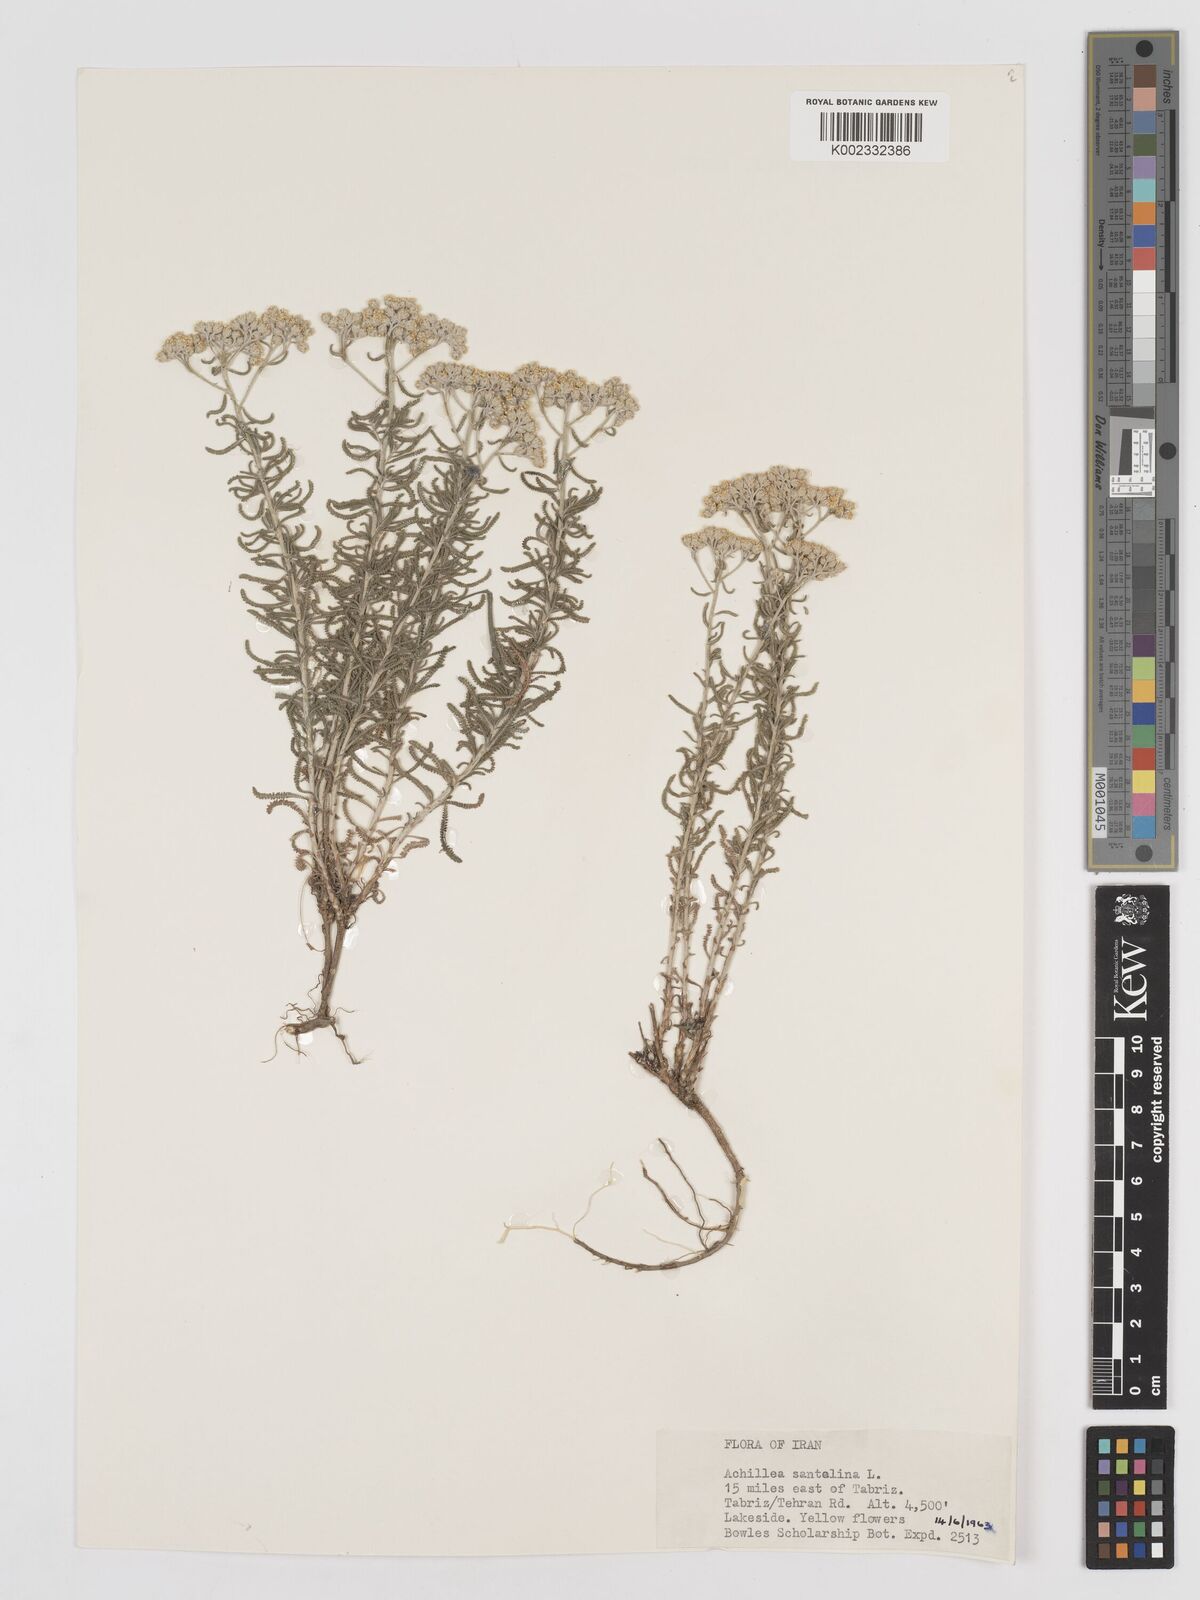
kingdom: Plantae
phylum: Tracheophyta
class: Magnoliopsida
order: Asterales
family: Asteraceae
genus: Achillea
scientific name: Achillea cretica
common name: Chamomile-leaved lavender-cotton
